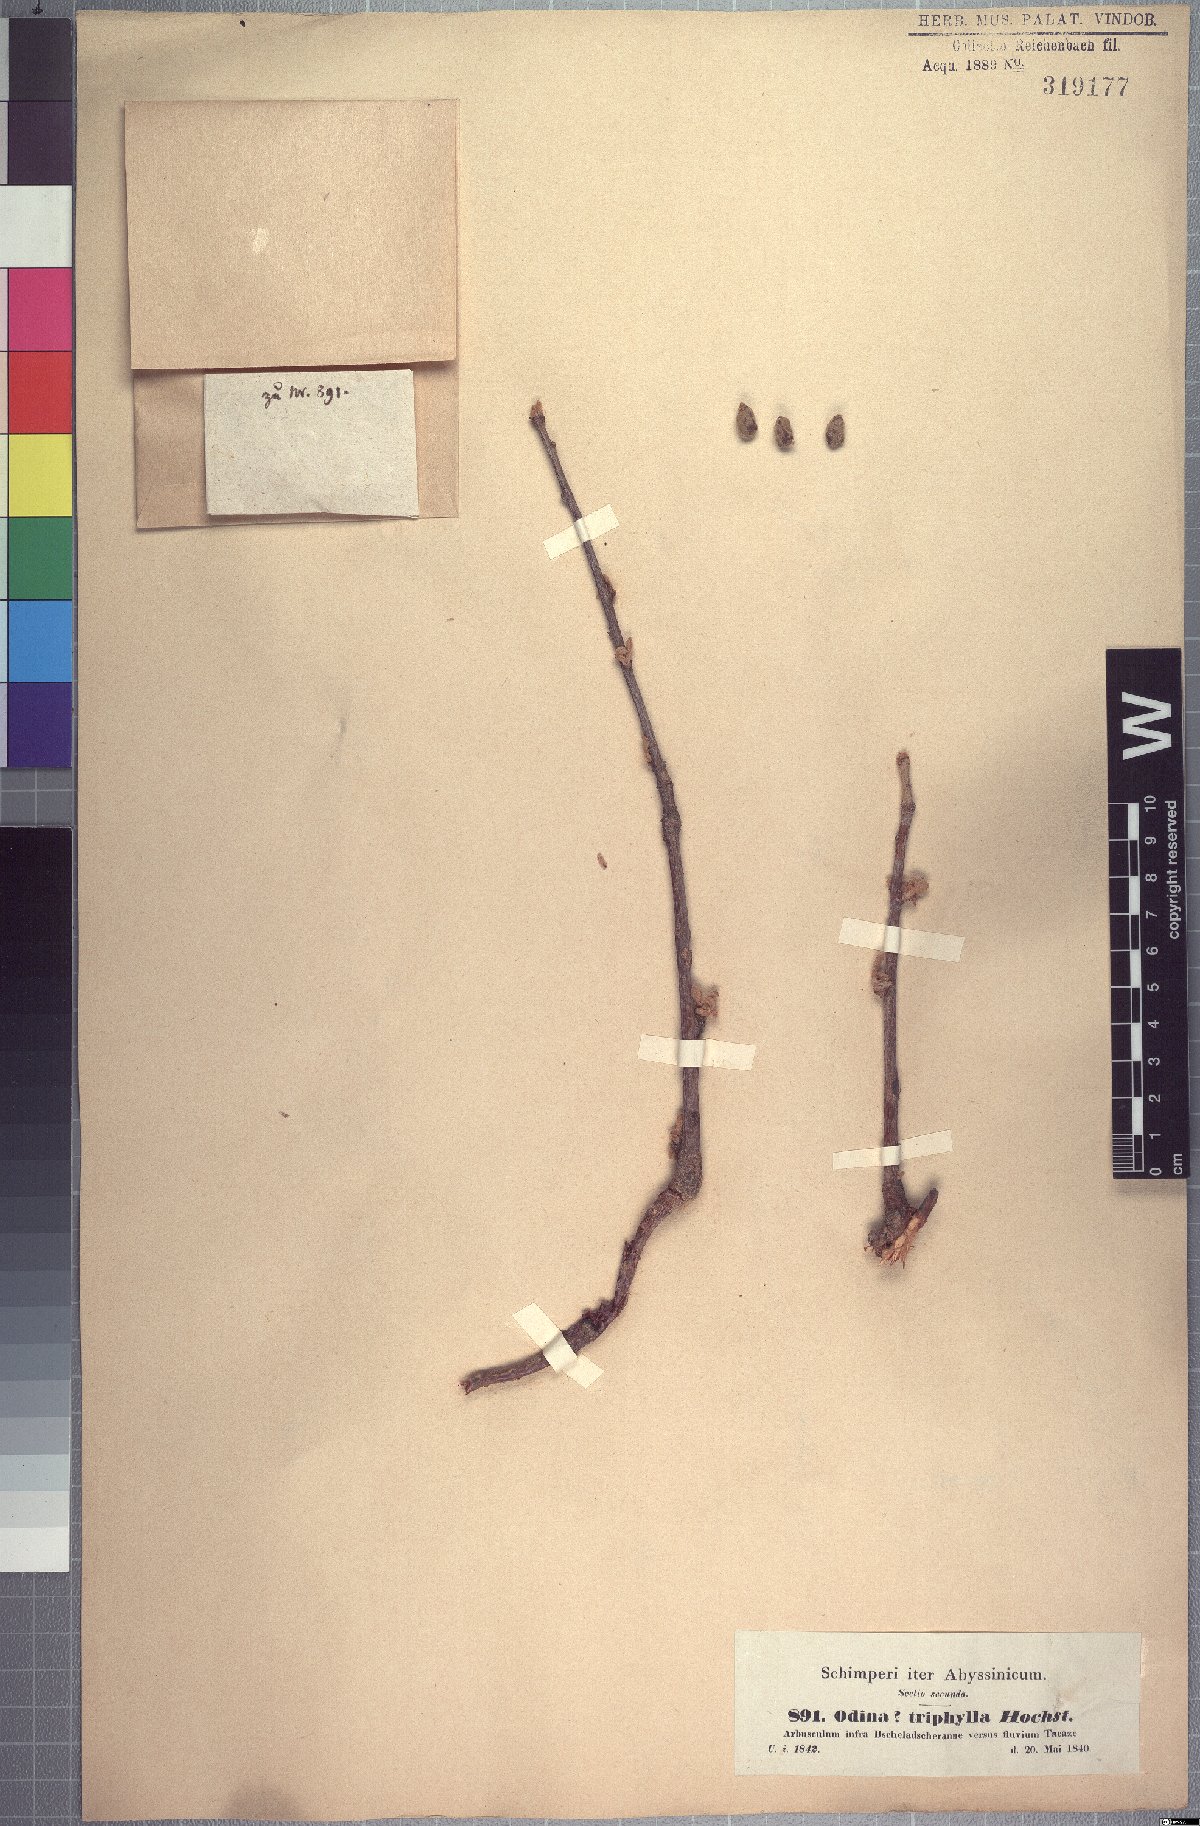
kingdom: Plantae
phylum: Tracheophyta
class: Magnoliopsida
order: Sapindales
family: Anacardiaceae
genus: Lannea
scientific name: Lannea triphylla
